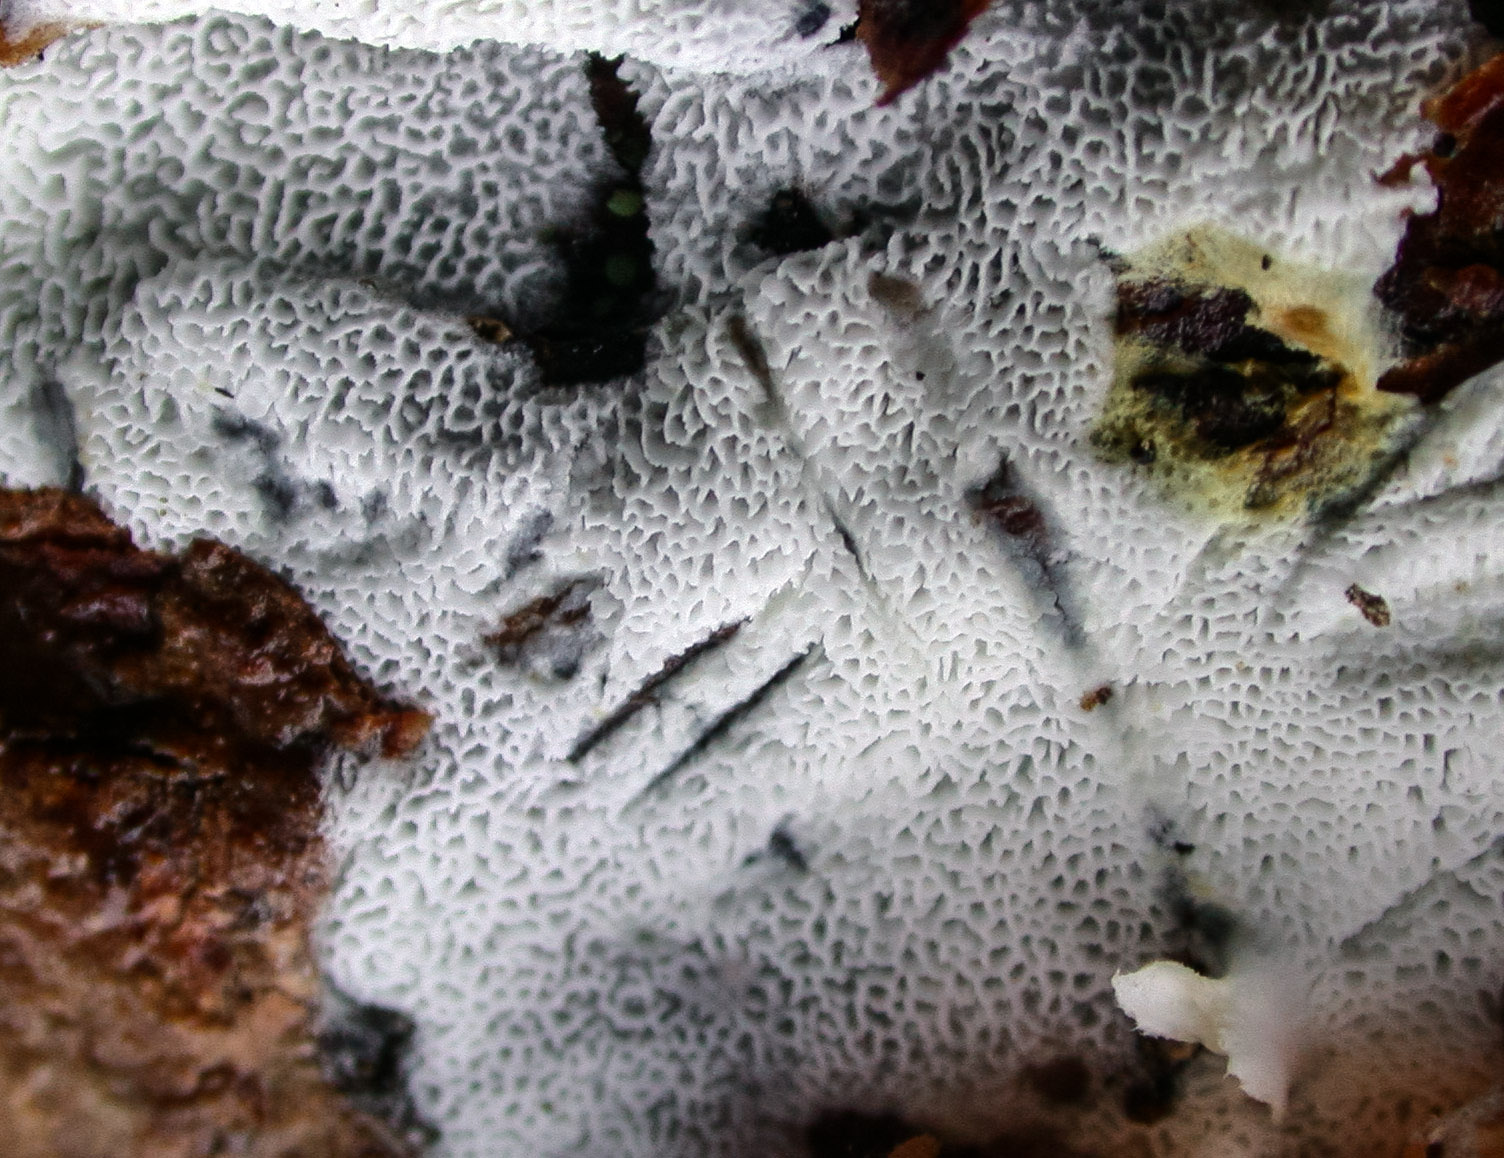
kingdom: Fungi
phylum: Basidiomycota
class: Agaricomycetes
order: Cantharellales
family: Hydnaceae
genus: Sistotrema
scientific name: Sistotrema dennisii
